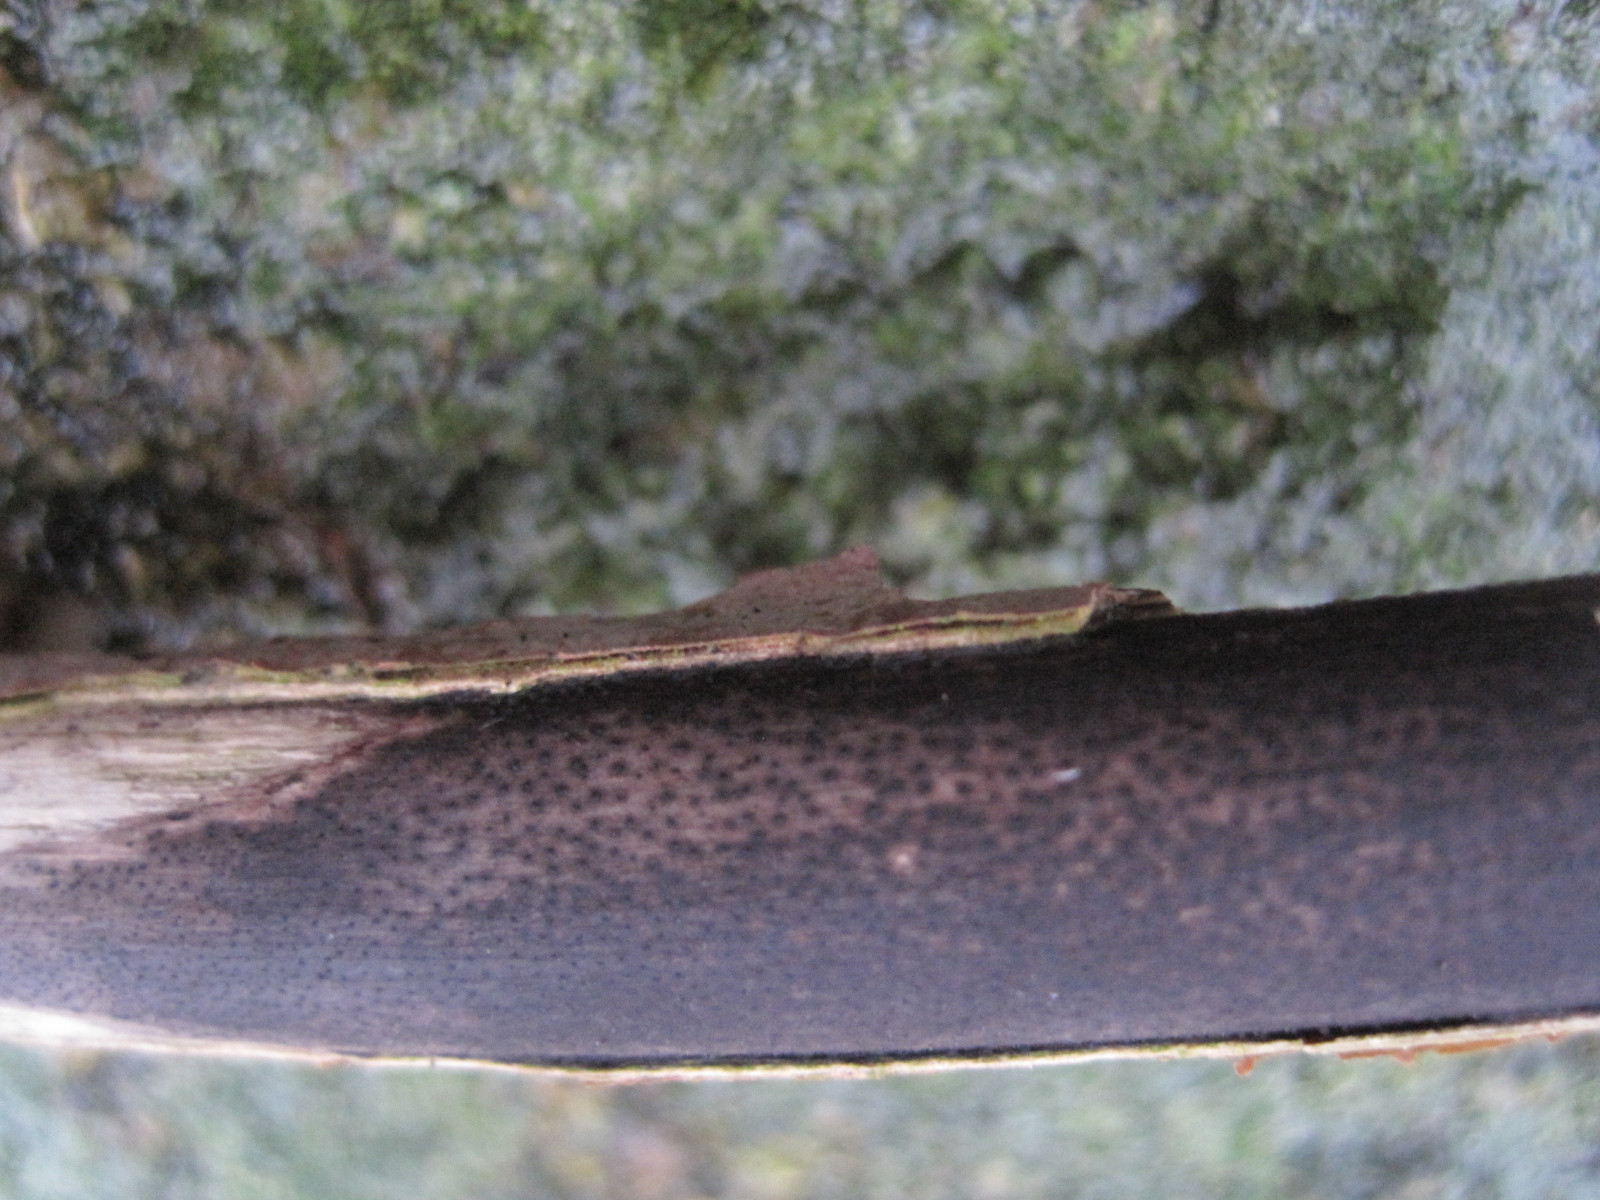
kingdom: Fungi
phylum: Ascomycota
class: Sordariomycetes
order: Xylariales
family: Diatrypaceae
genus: Eutypa
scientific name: Eutypa maura
